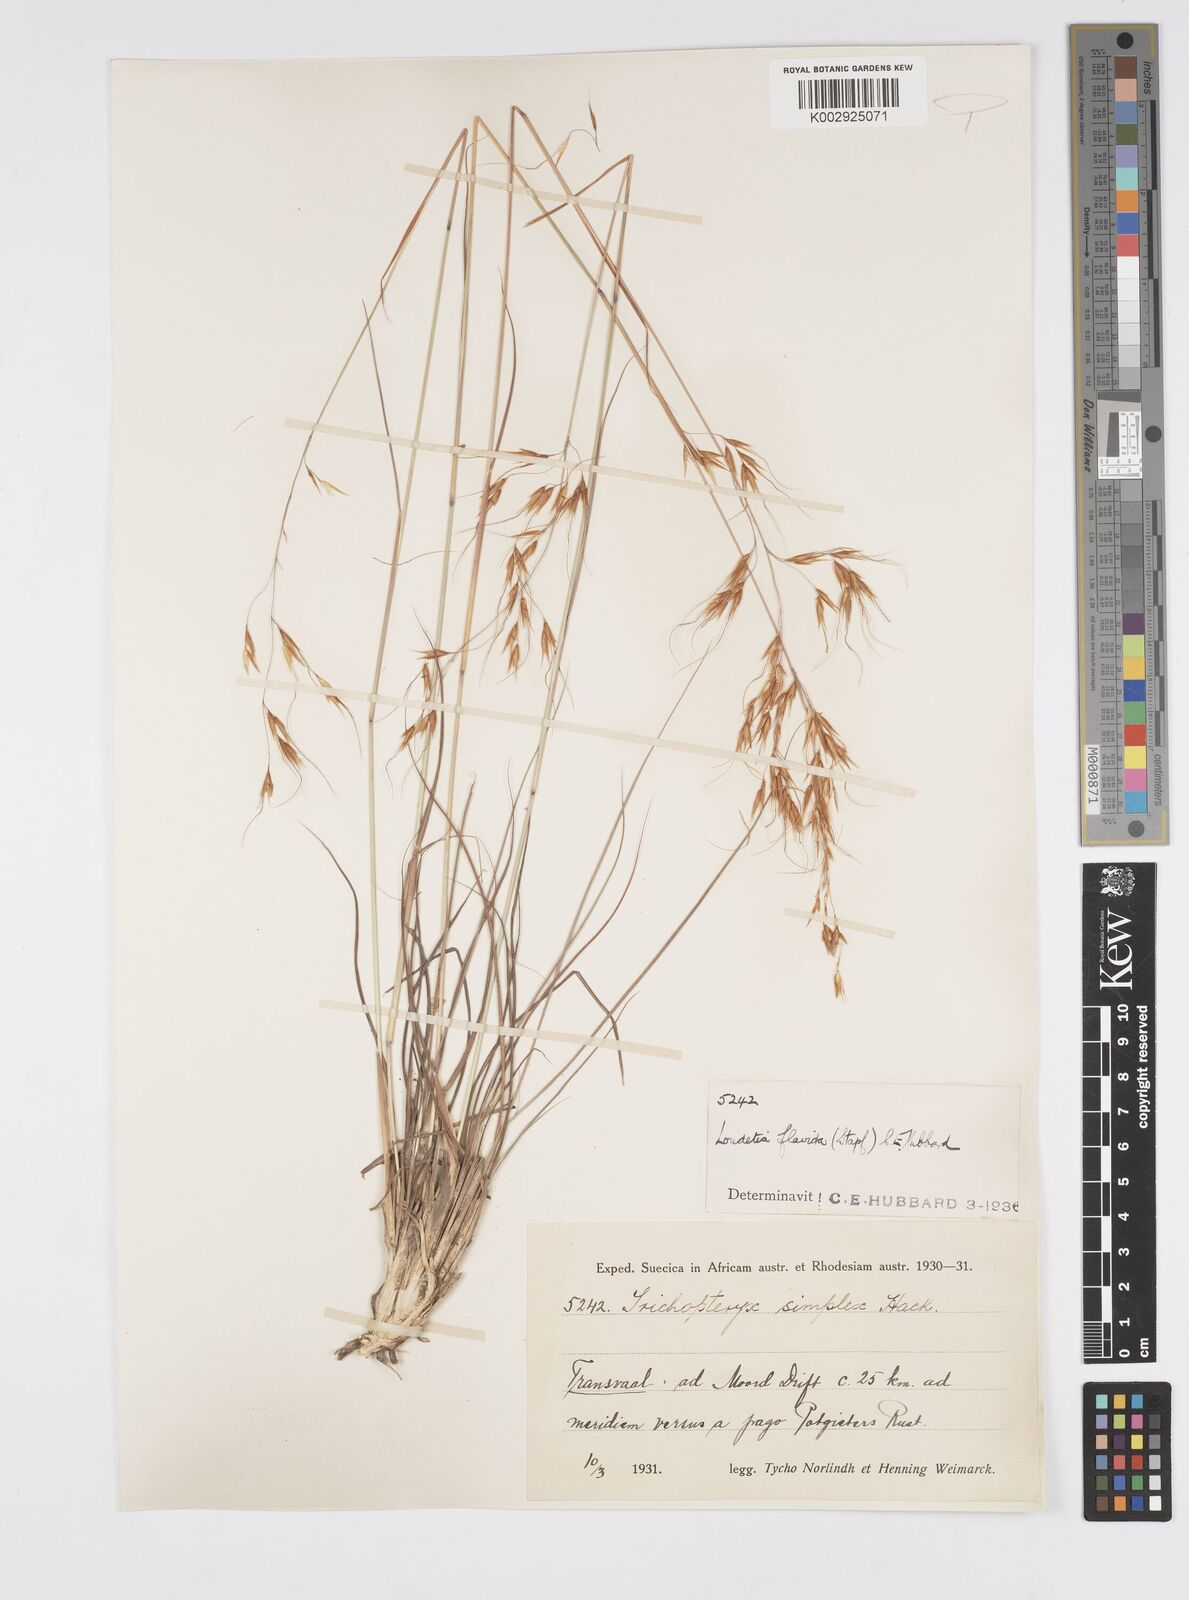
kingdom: Plantae
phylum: Tracheophyta
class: Liliopsida
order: Poales
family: Poaceae
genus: Loudetia
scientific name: Loudetia flavida
